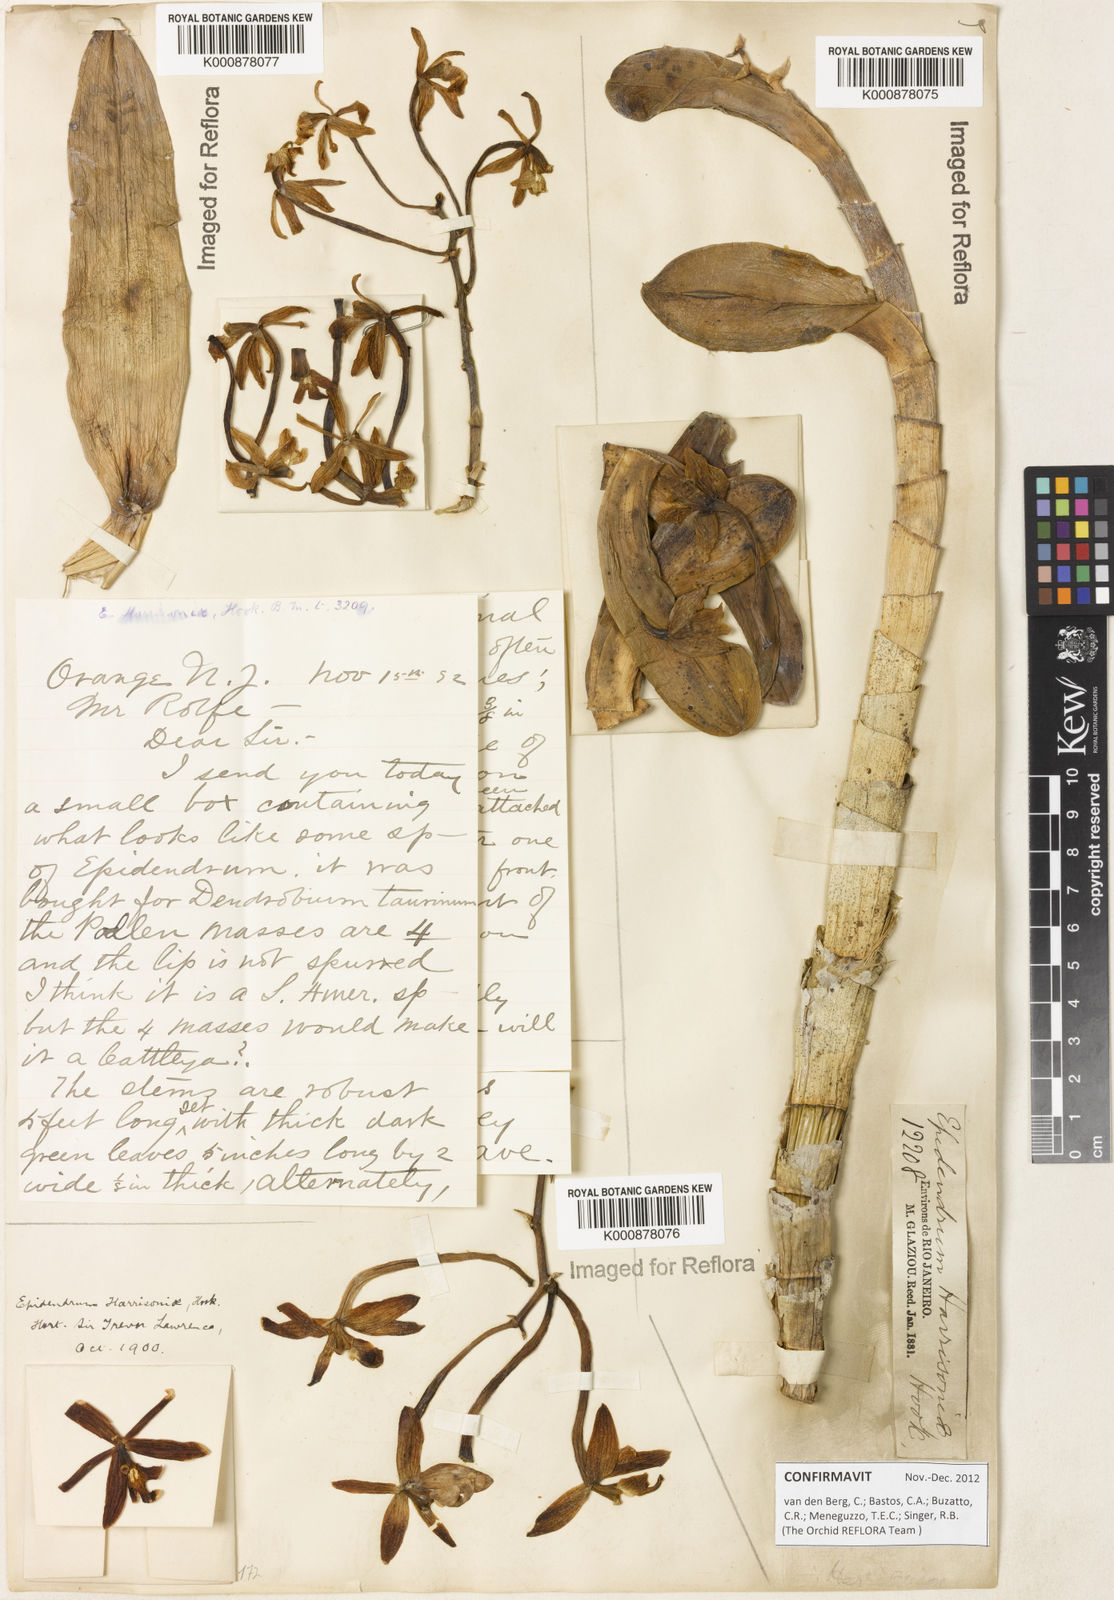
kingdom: Plantae
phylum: Tracheophyta
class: Liliopsida
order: Asparagales
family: Orchidaceae
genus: Epidendrum
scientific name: Epidendrum harrisoniae
